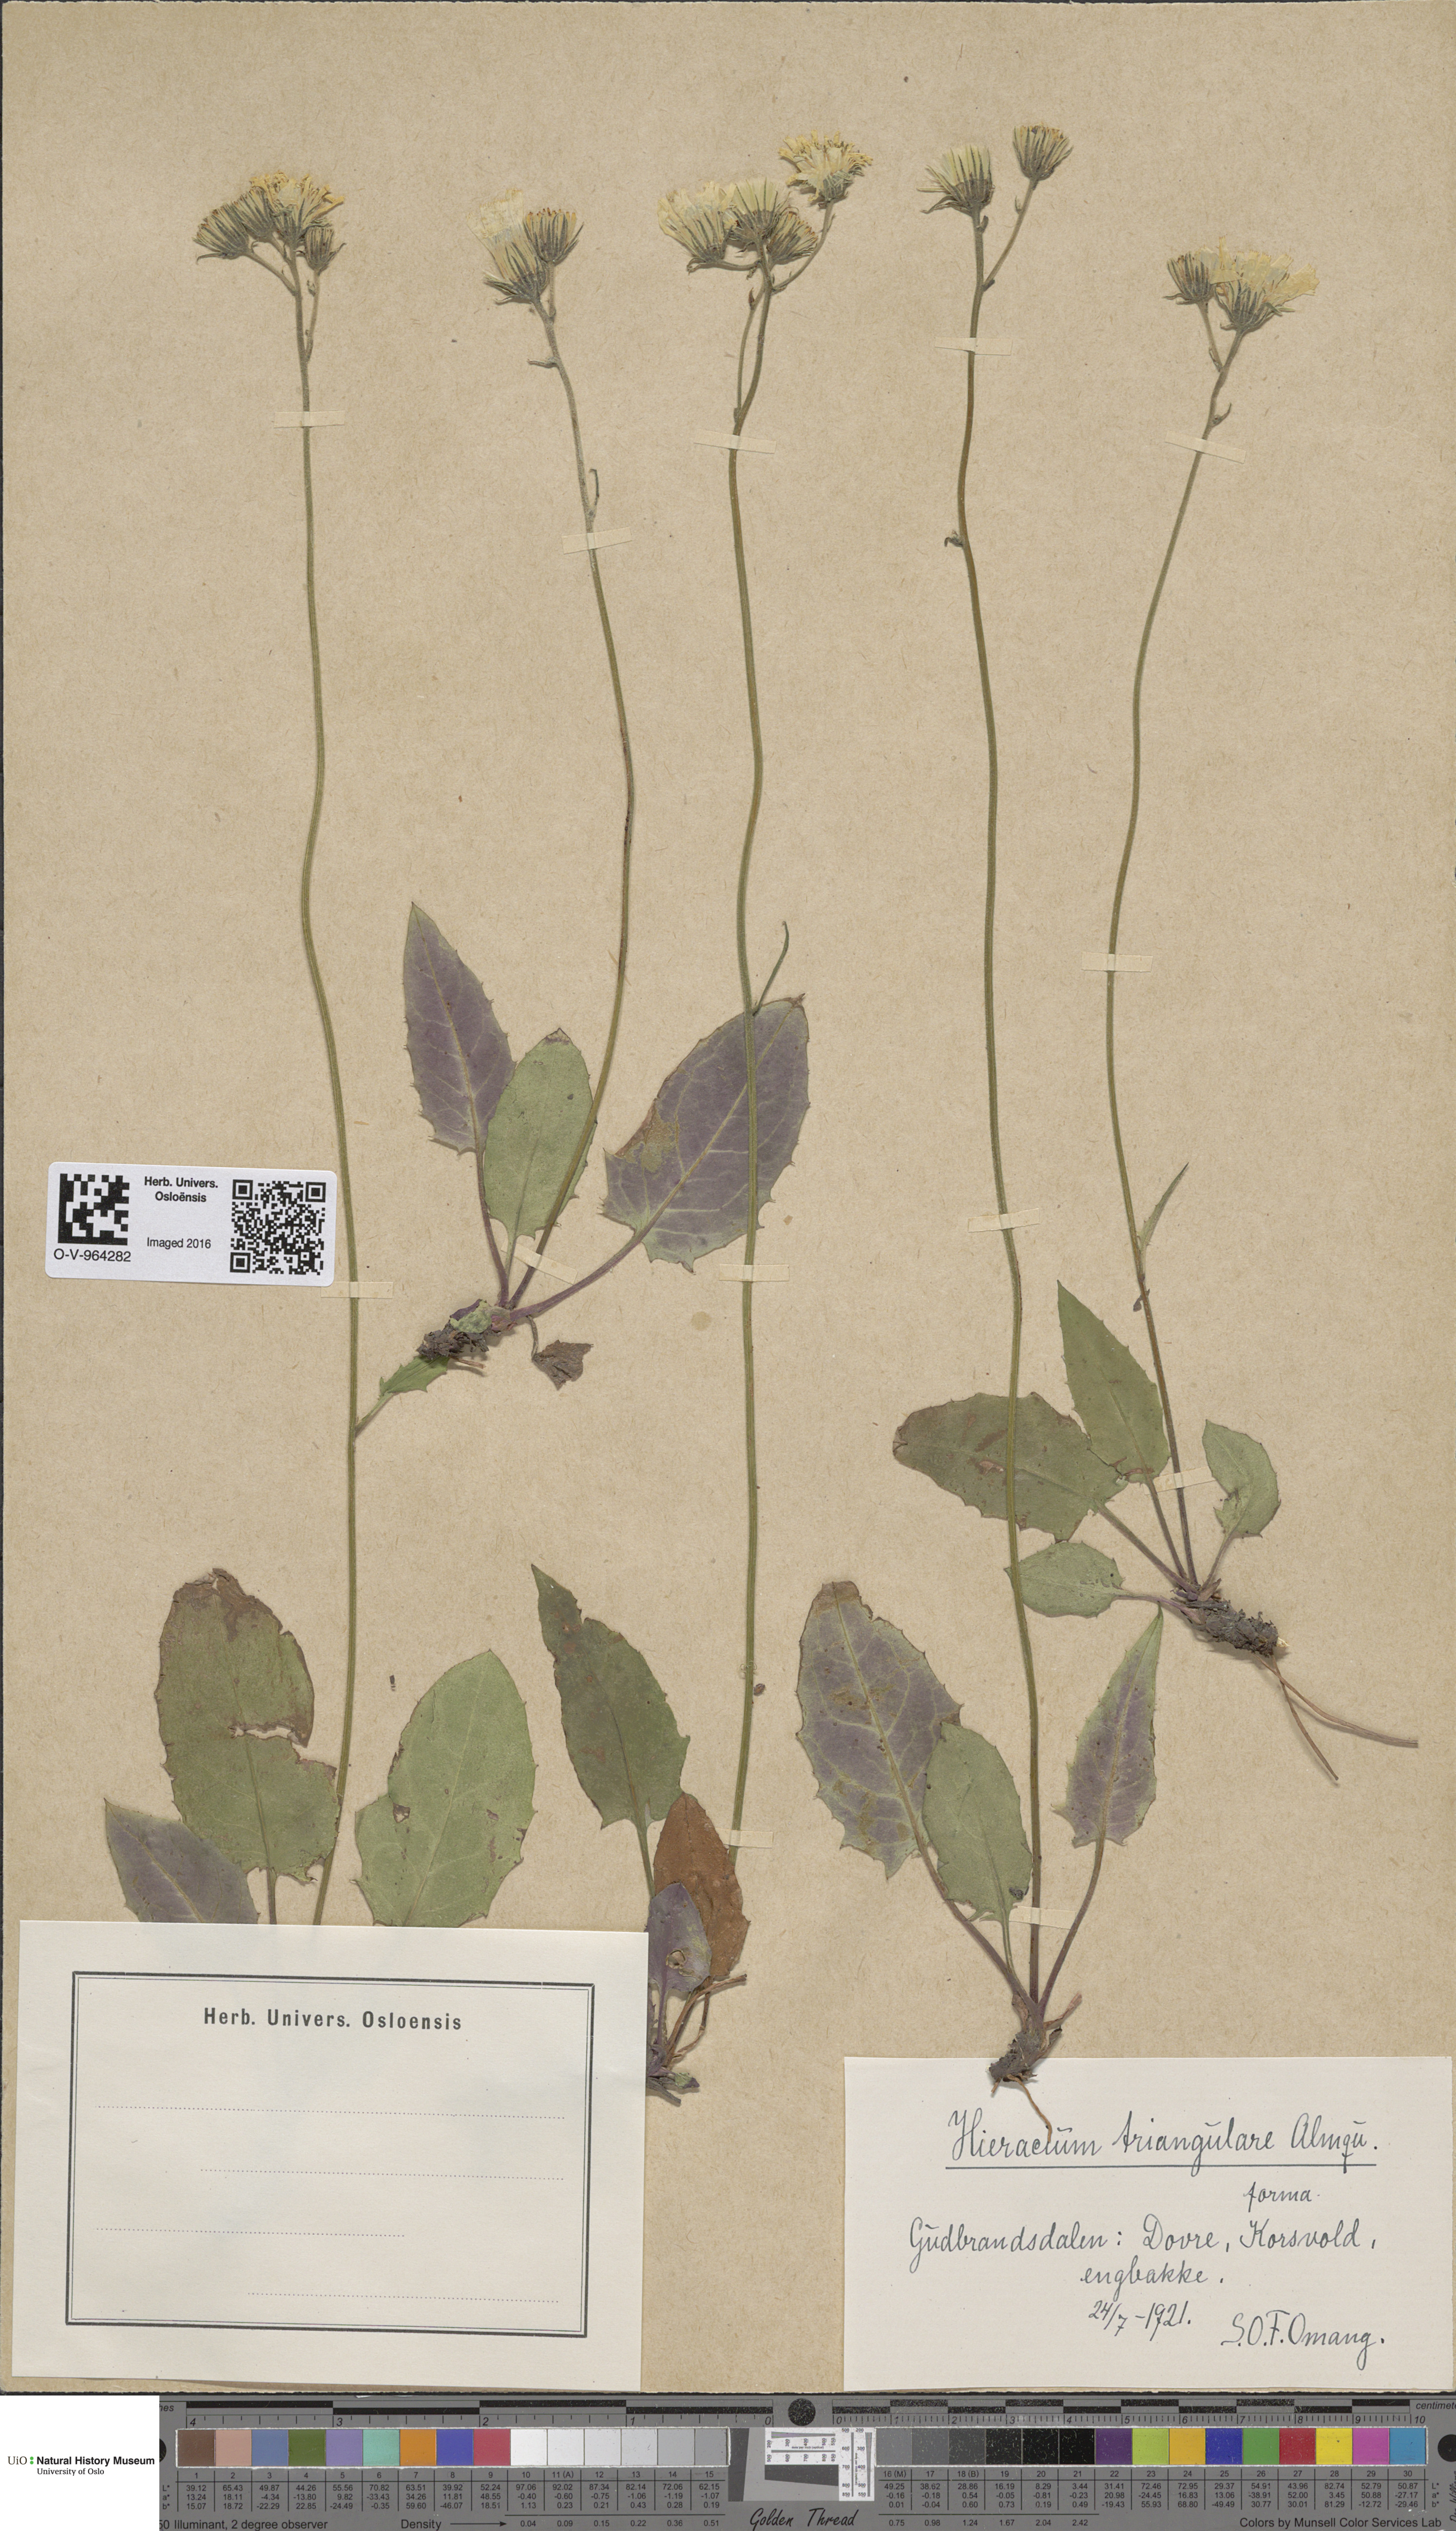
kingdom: Plantae
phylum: Tracheophyta
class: Magnoliopsida
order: Asterales
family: Asteraceae
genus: Hieracium
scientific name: Hieracium triangulare
